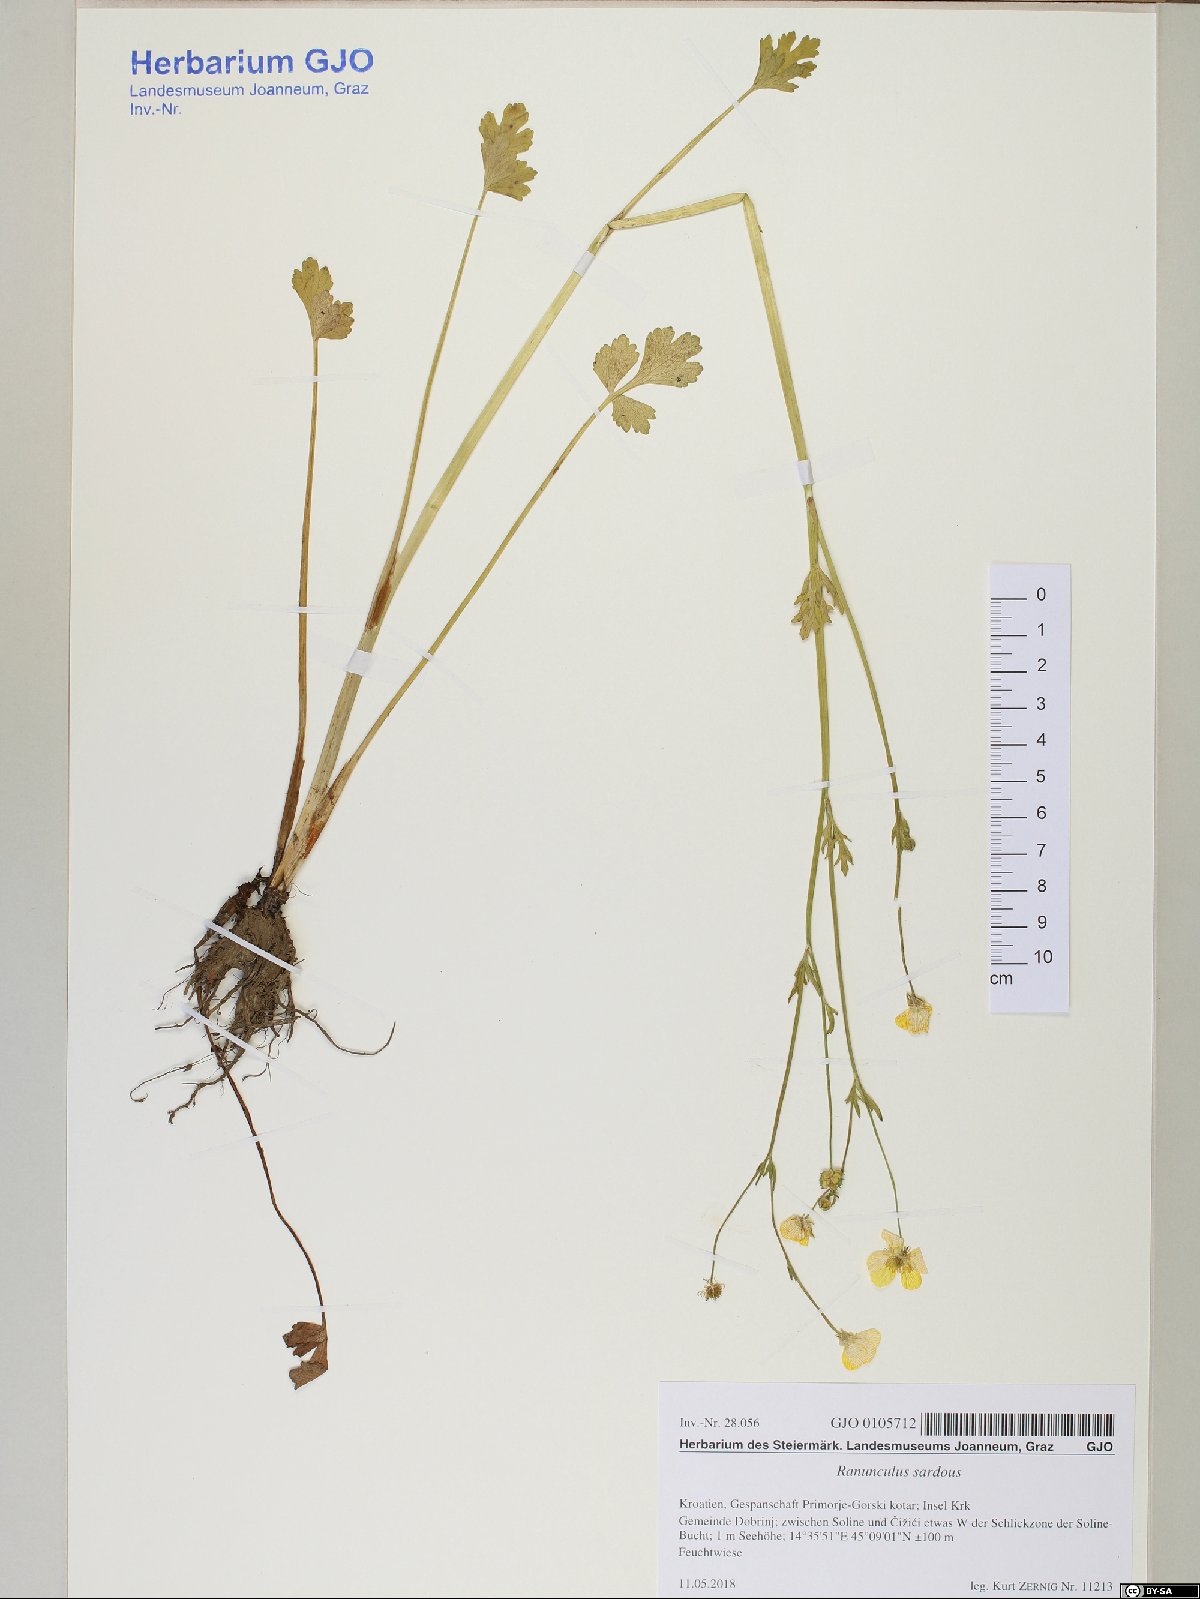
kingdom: Plantae
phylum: Tracheophyta
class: Magnoliopsida
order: Ranunculales
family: Ranunculaceae
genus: Ranunculus
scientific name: Ranunculus sardous
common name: Hairy buttercup
